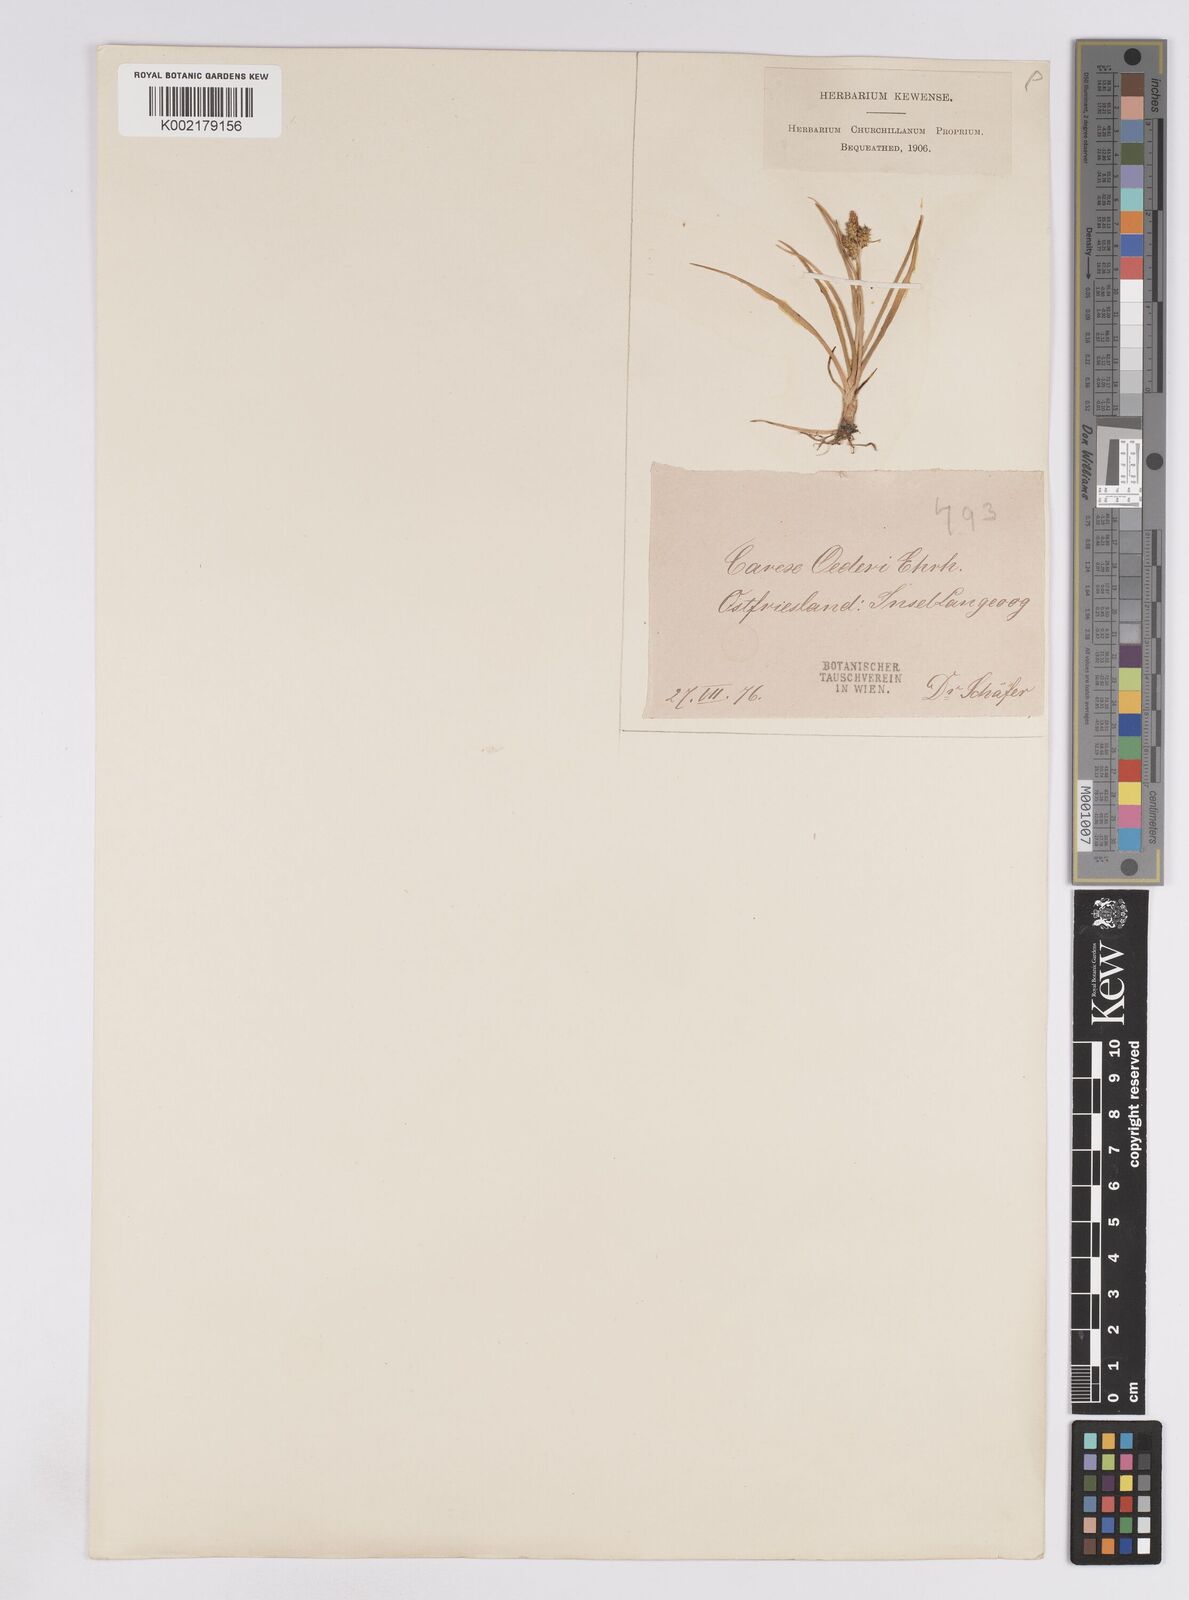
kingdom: Plantae
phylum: Tracheophyta
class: Liliopsida
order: Poales
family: Cyperaceae
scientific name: Cyperaceae
